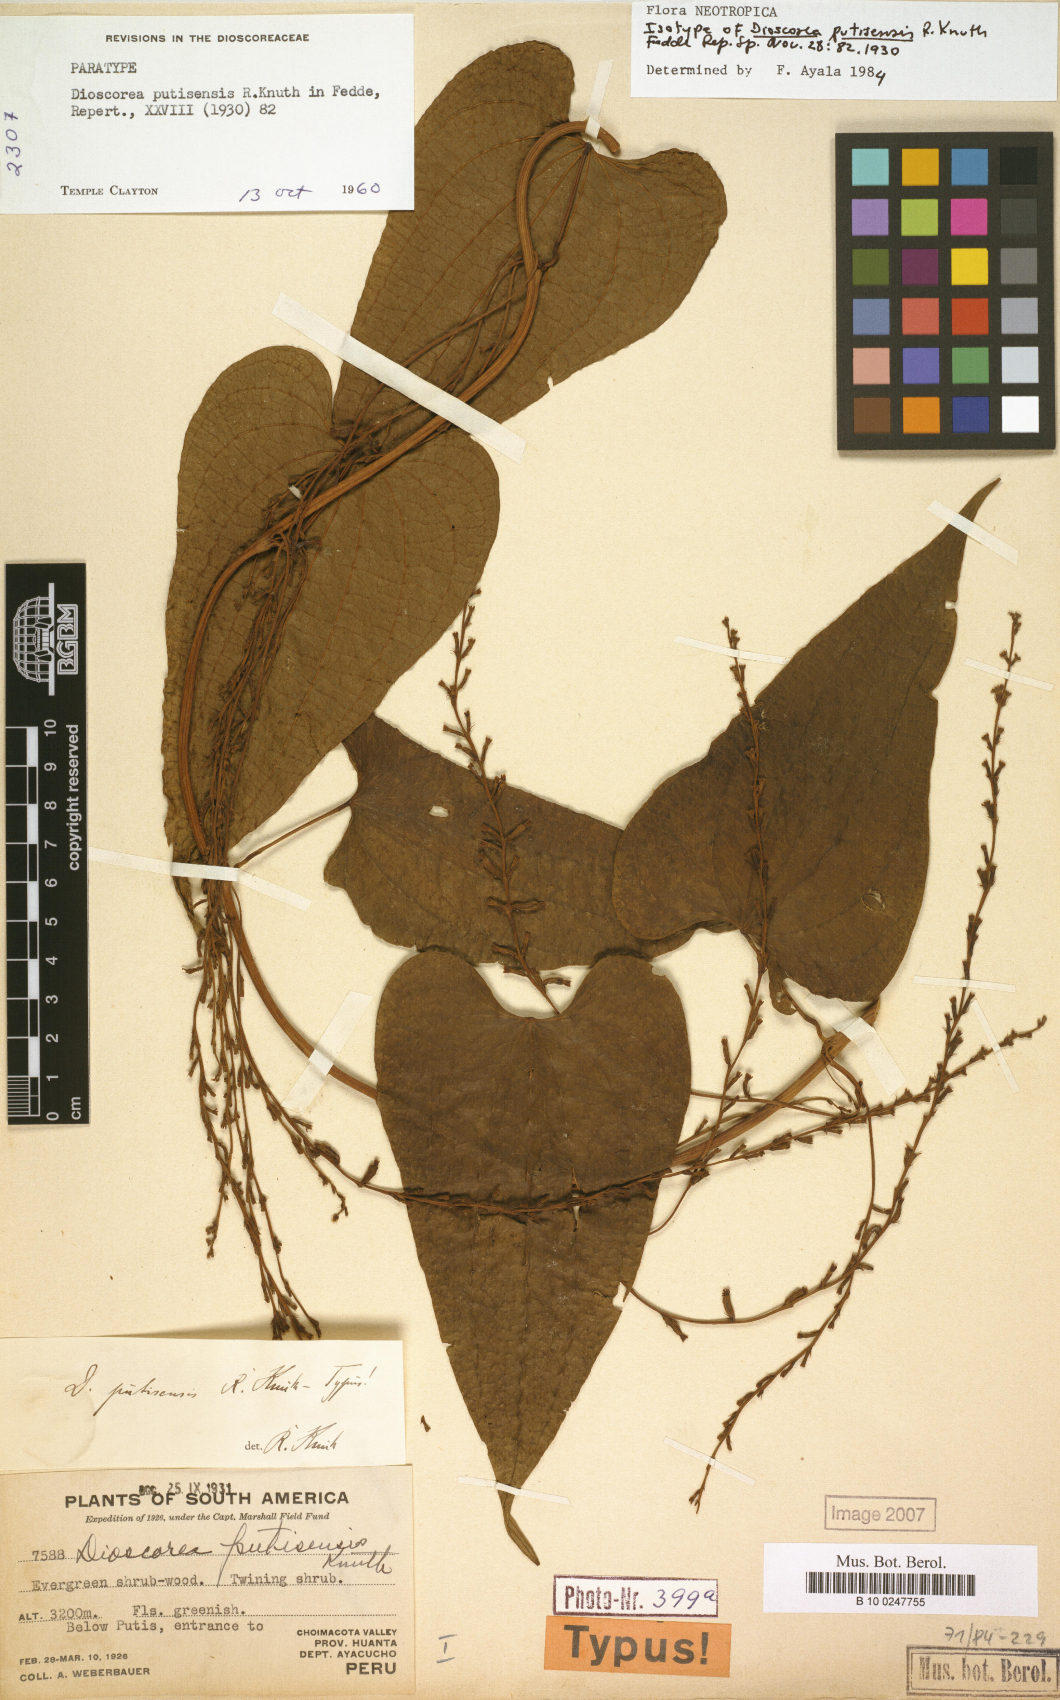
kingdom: Plantae
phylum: Tracheophyta
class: Liliopsida
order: Dioscoreales
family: Dioscoreaceae
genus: Dioscorea
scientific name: Dioscorea putisensis
